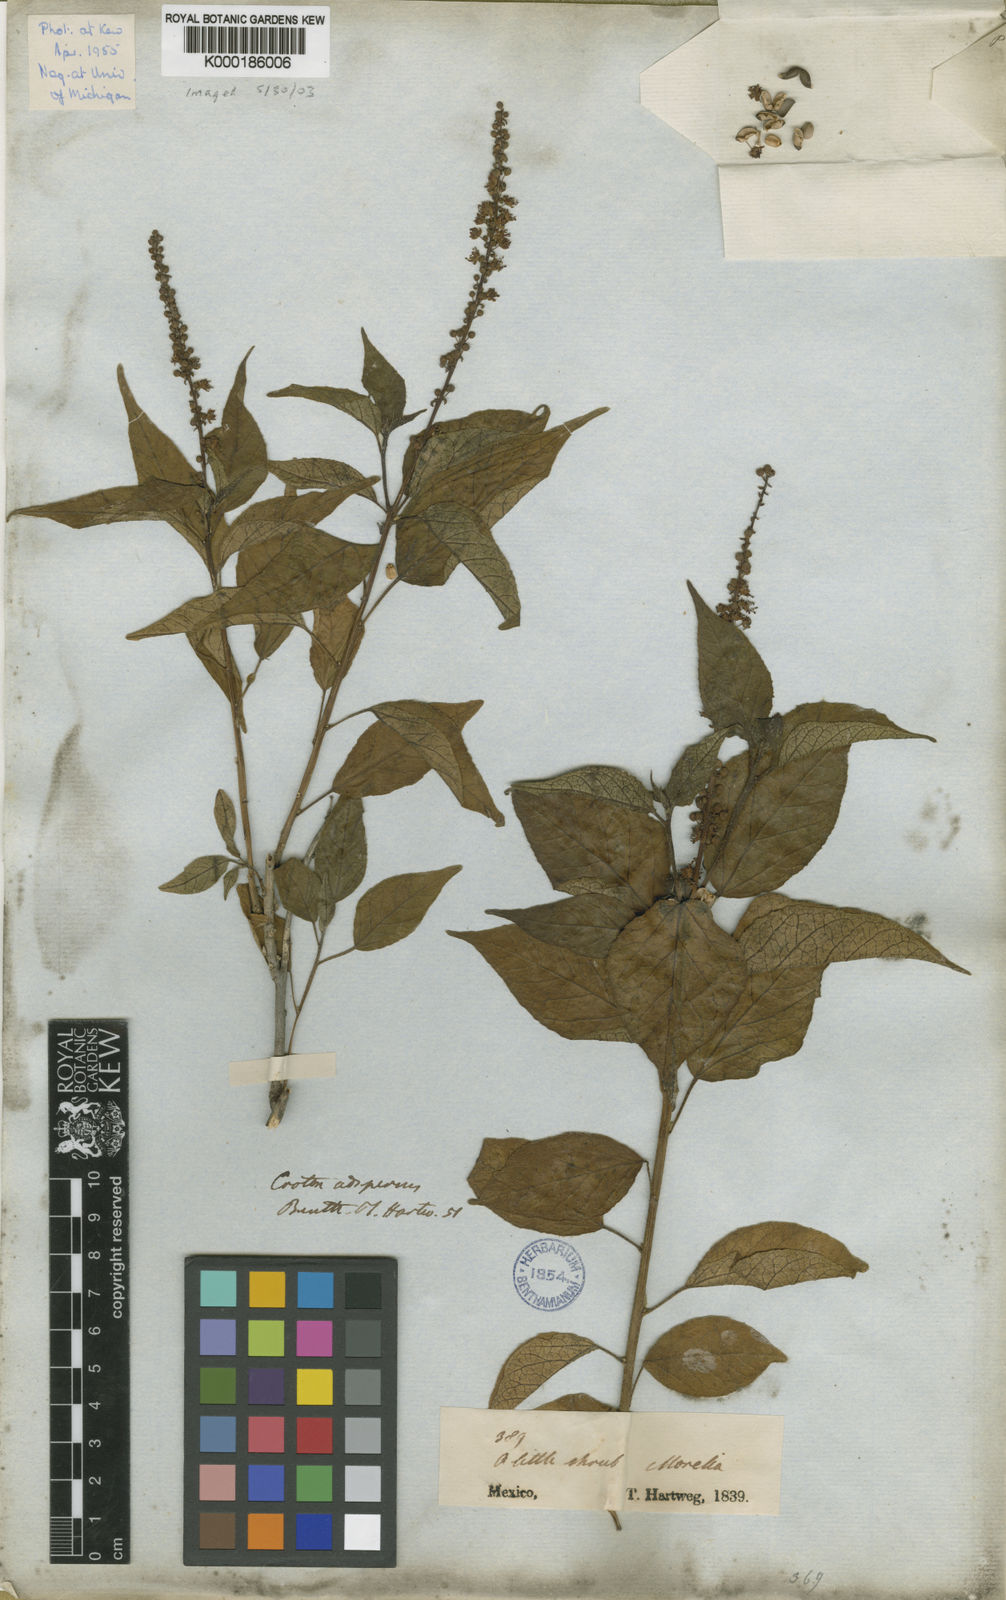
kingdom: Plantae
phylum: Tracheophyta
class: Magnoliopsida
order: Malpighiales
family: Euphorbiaceae
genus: Croton
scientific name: Croton adspersus
